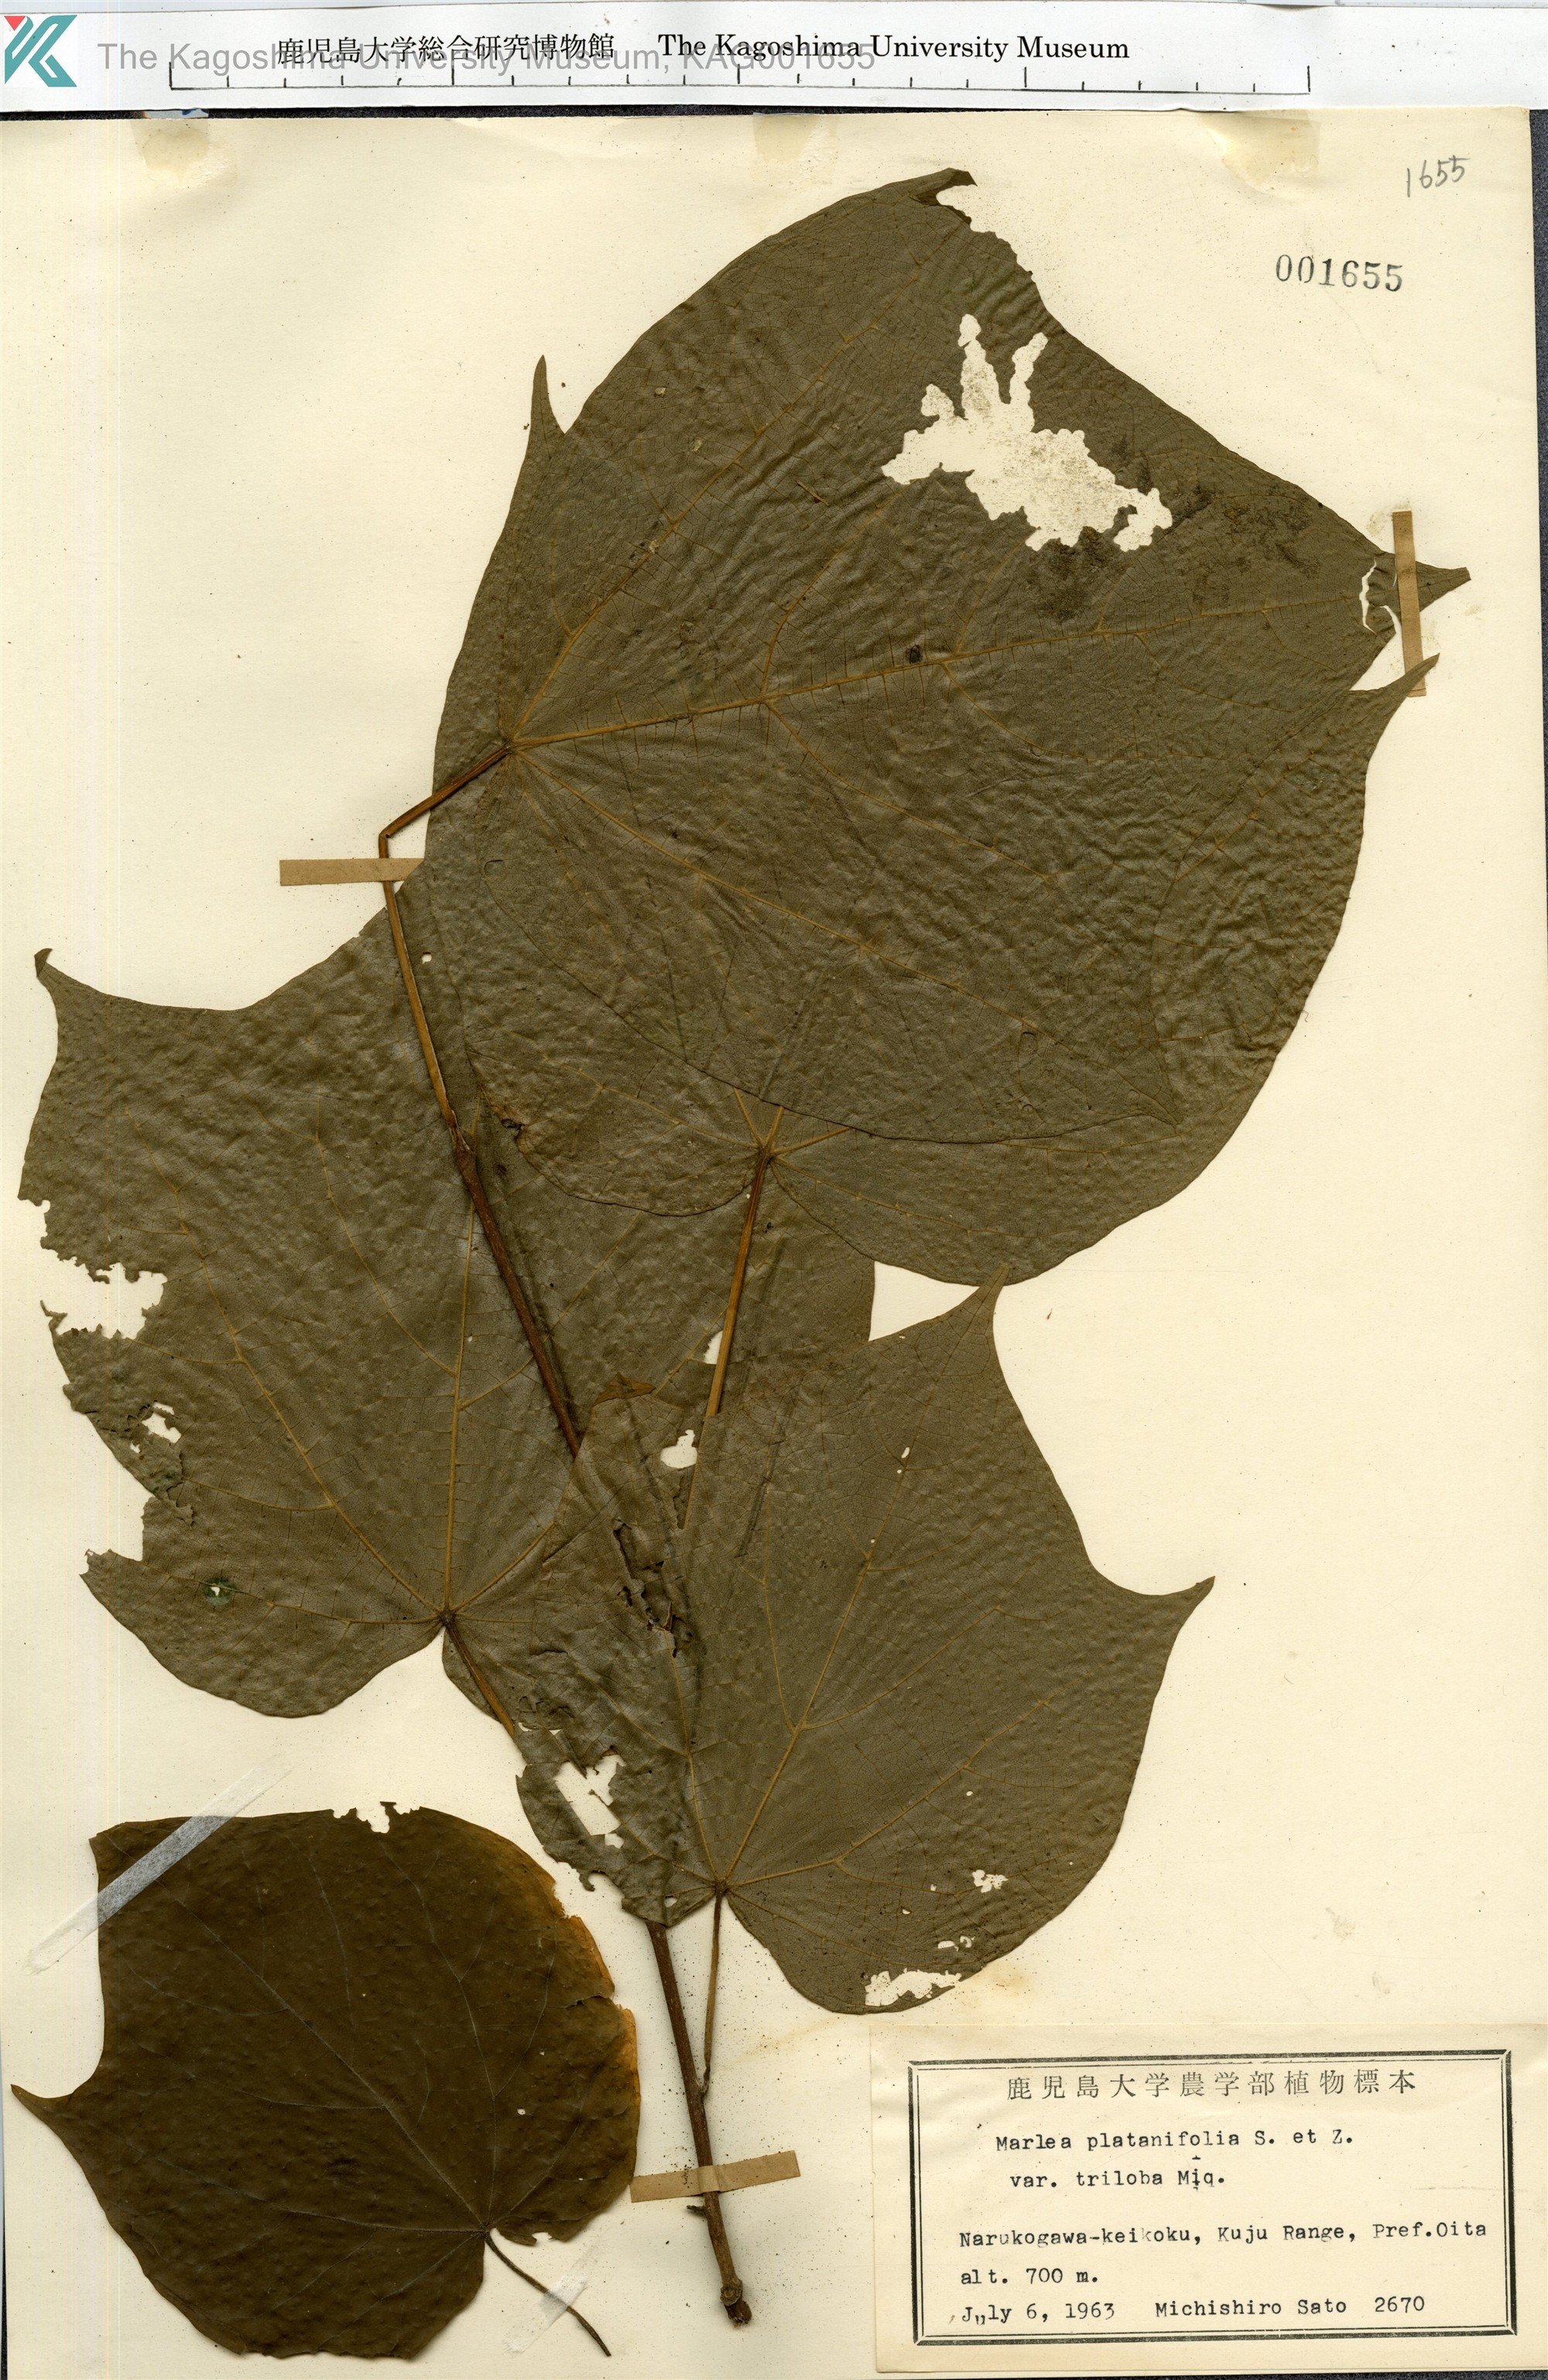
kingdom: Plantae
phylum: Tracheophyta
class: Magnoliopsida
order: Cornales
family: Cornaceae
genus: Alangium
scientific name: Alangium platanifolium
